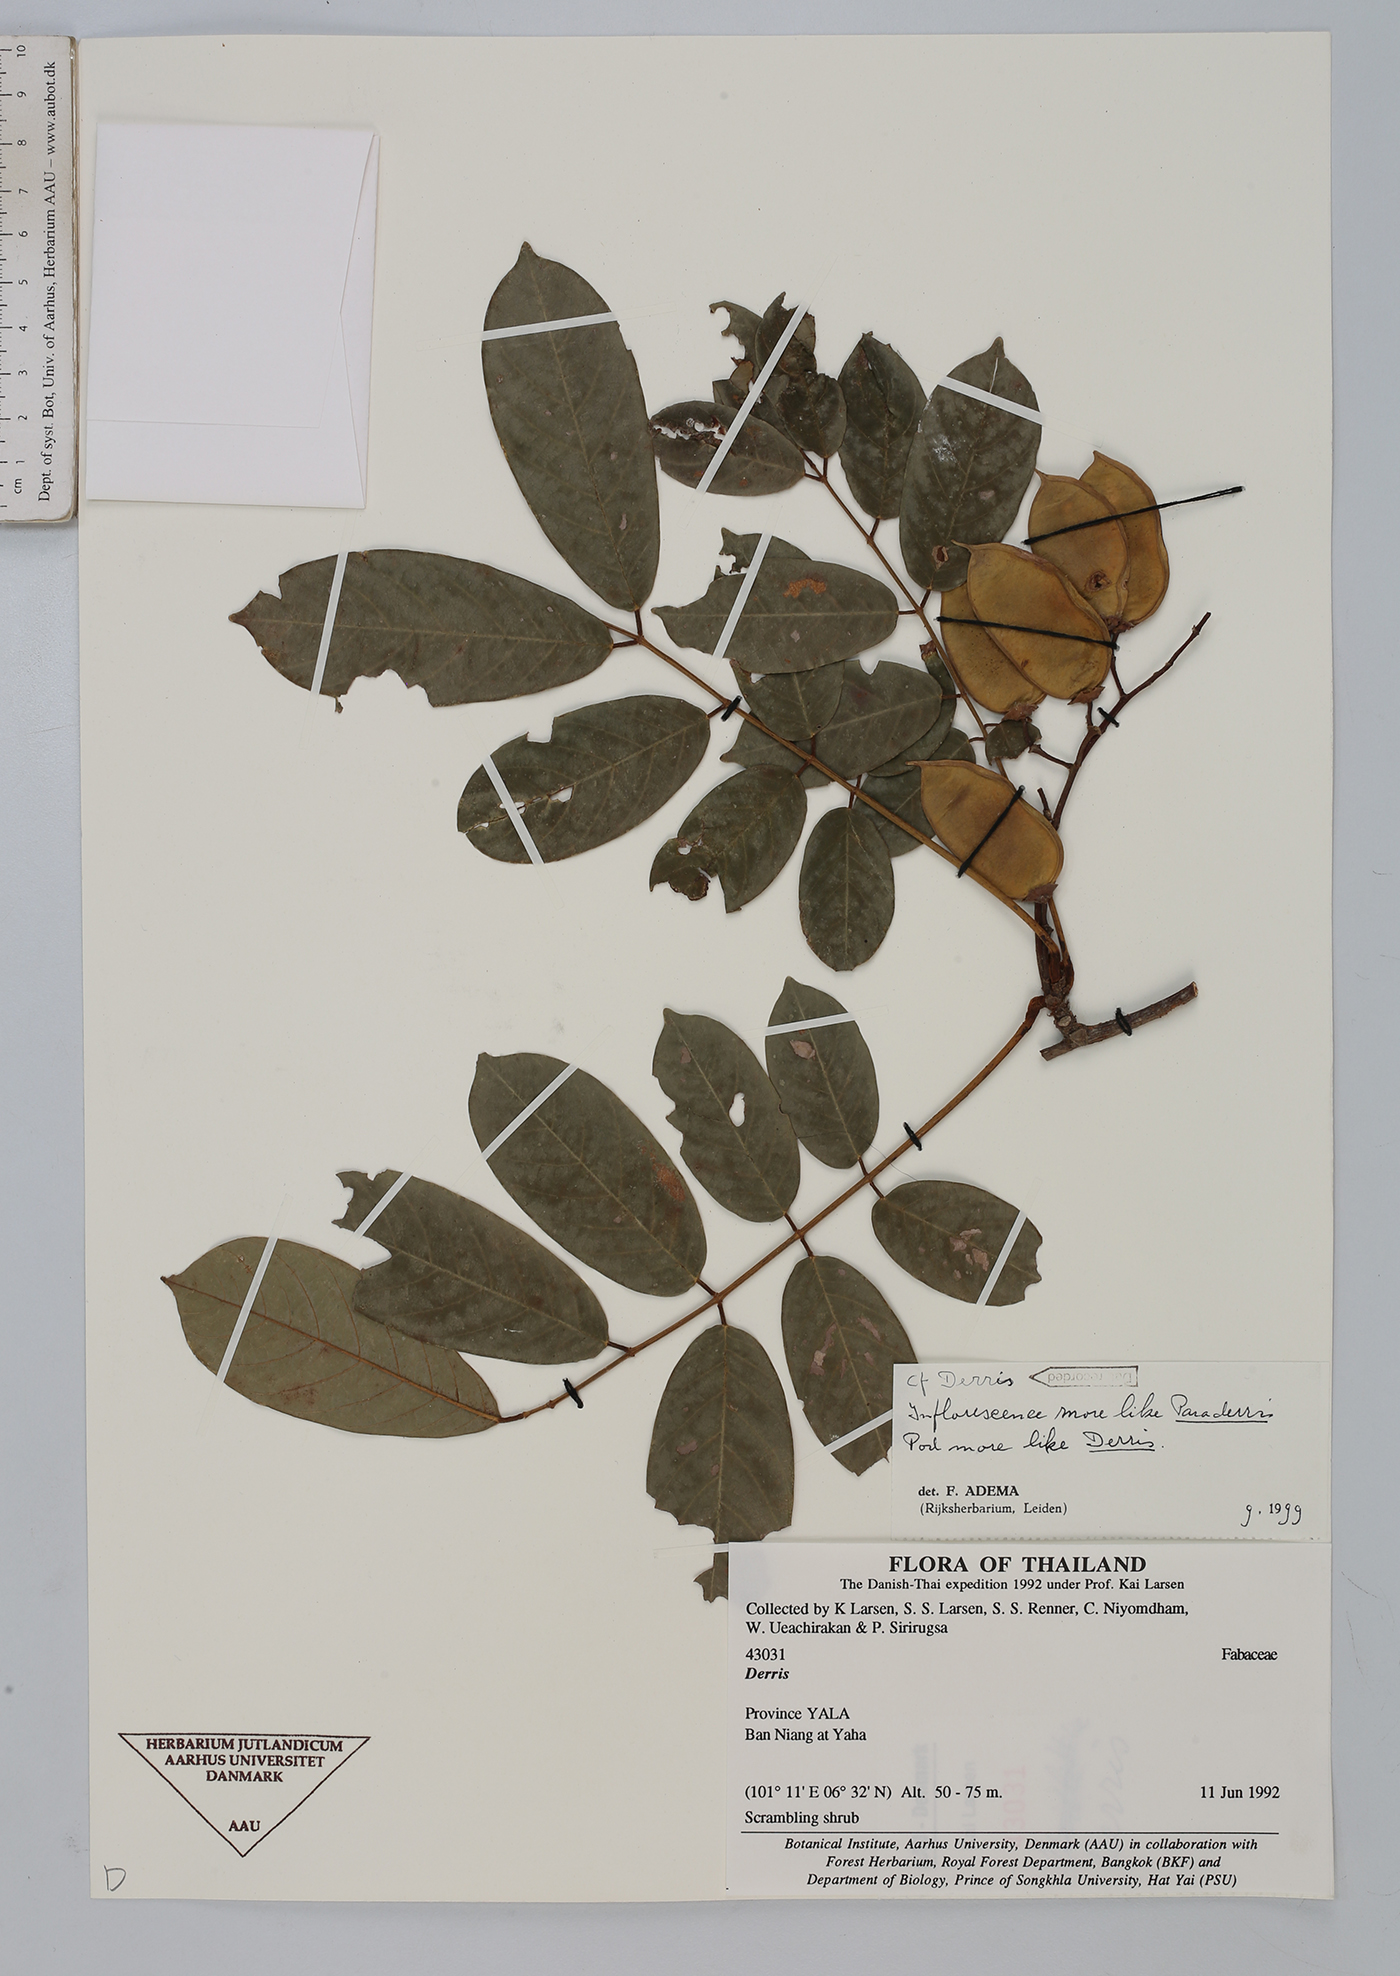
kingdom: Plantae
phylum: Tracheophyta
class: Magnoliopsida
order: Fabales
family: Fabaceae
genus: Derris
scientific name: Derris
